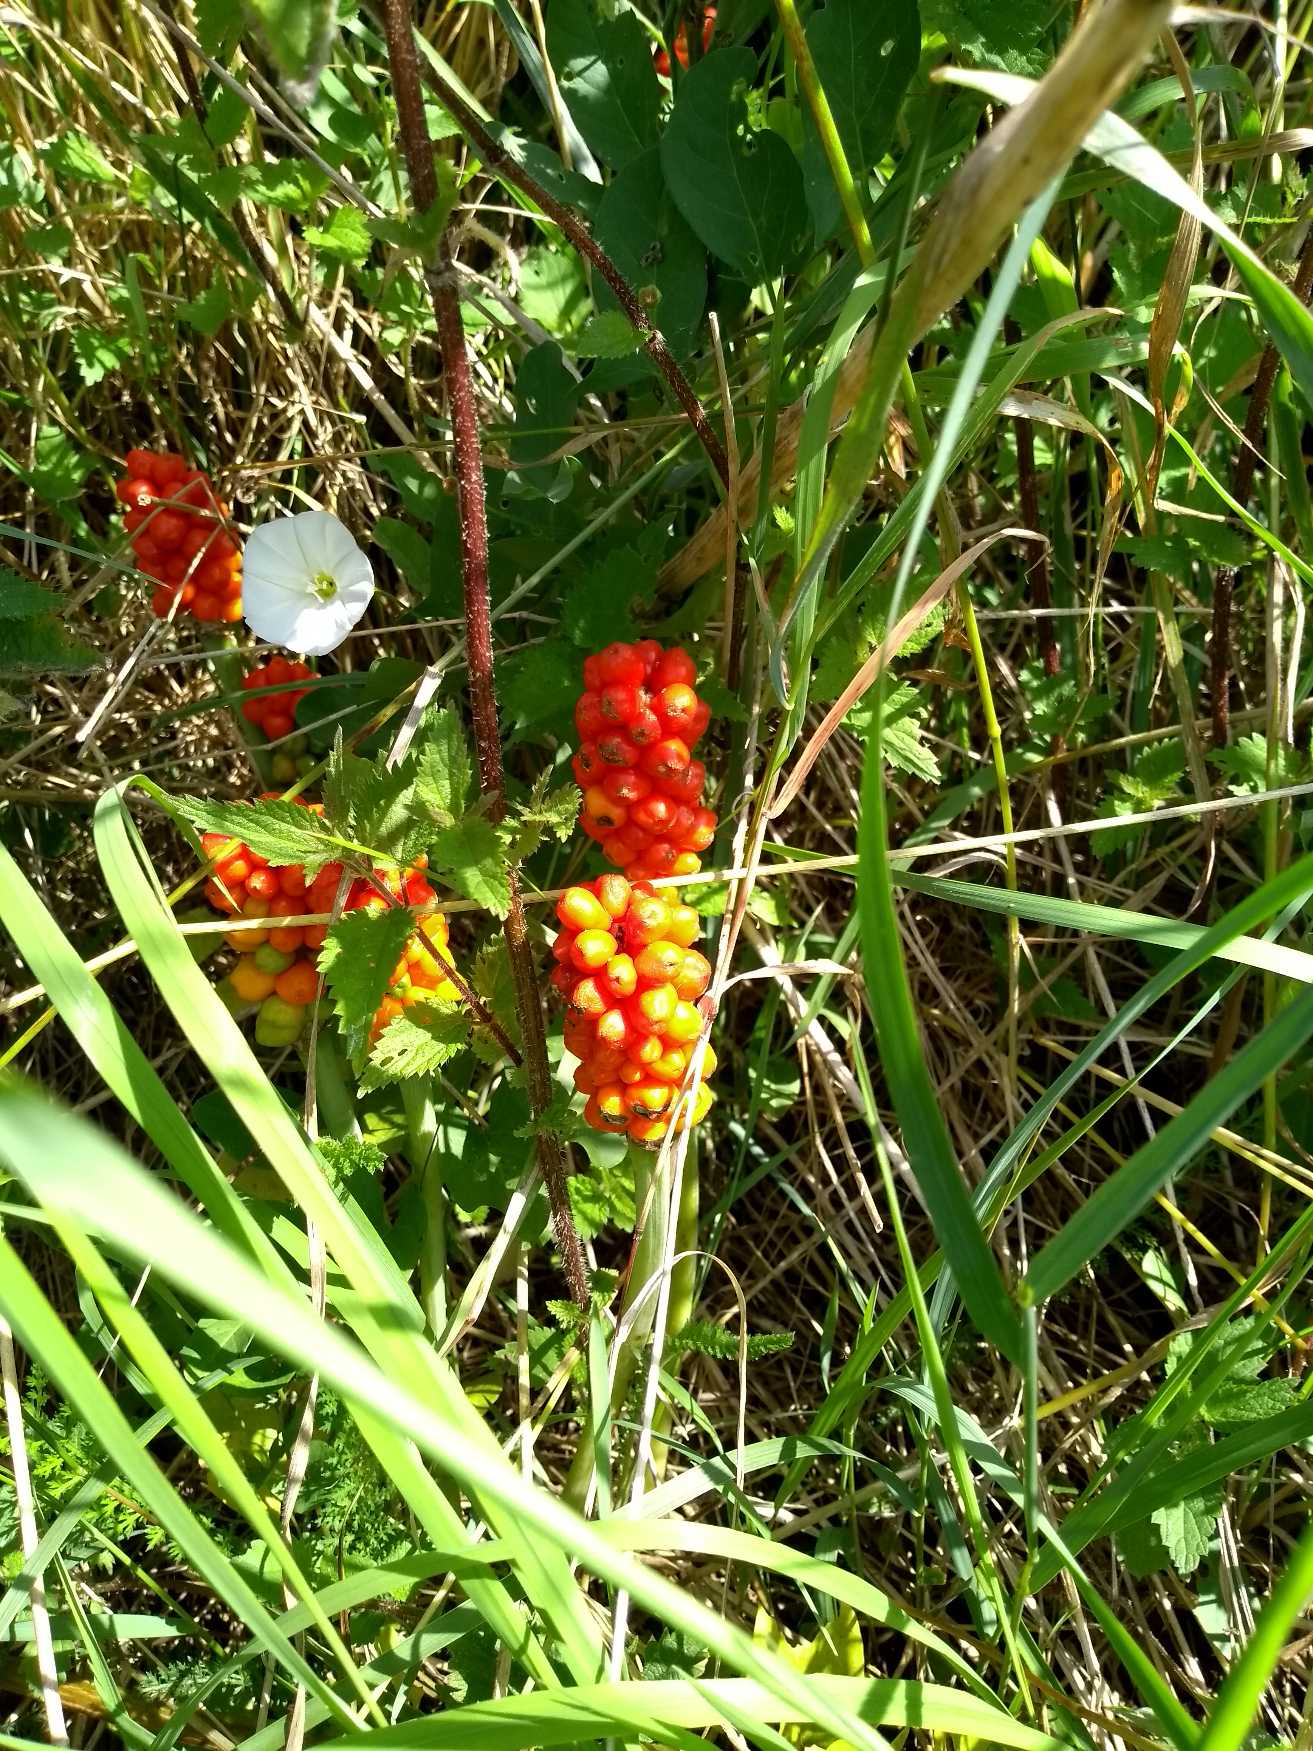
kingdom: Plantae
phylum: Tracheophyta
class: Liliopsida
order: Alismatales
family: Araceae
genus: Arum
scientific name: Arum
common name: Arumslægten
